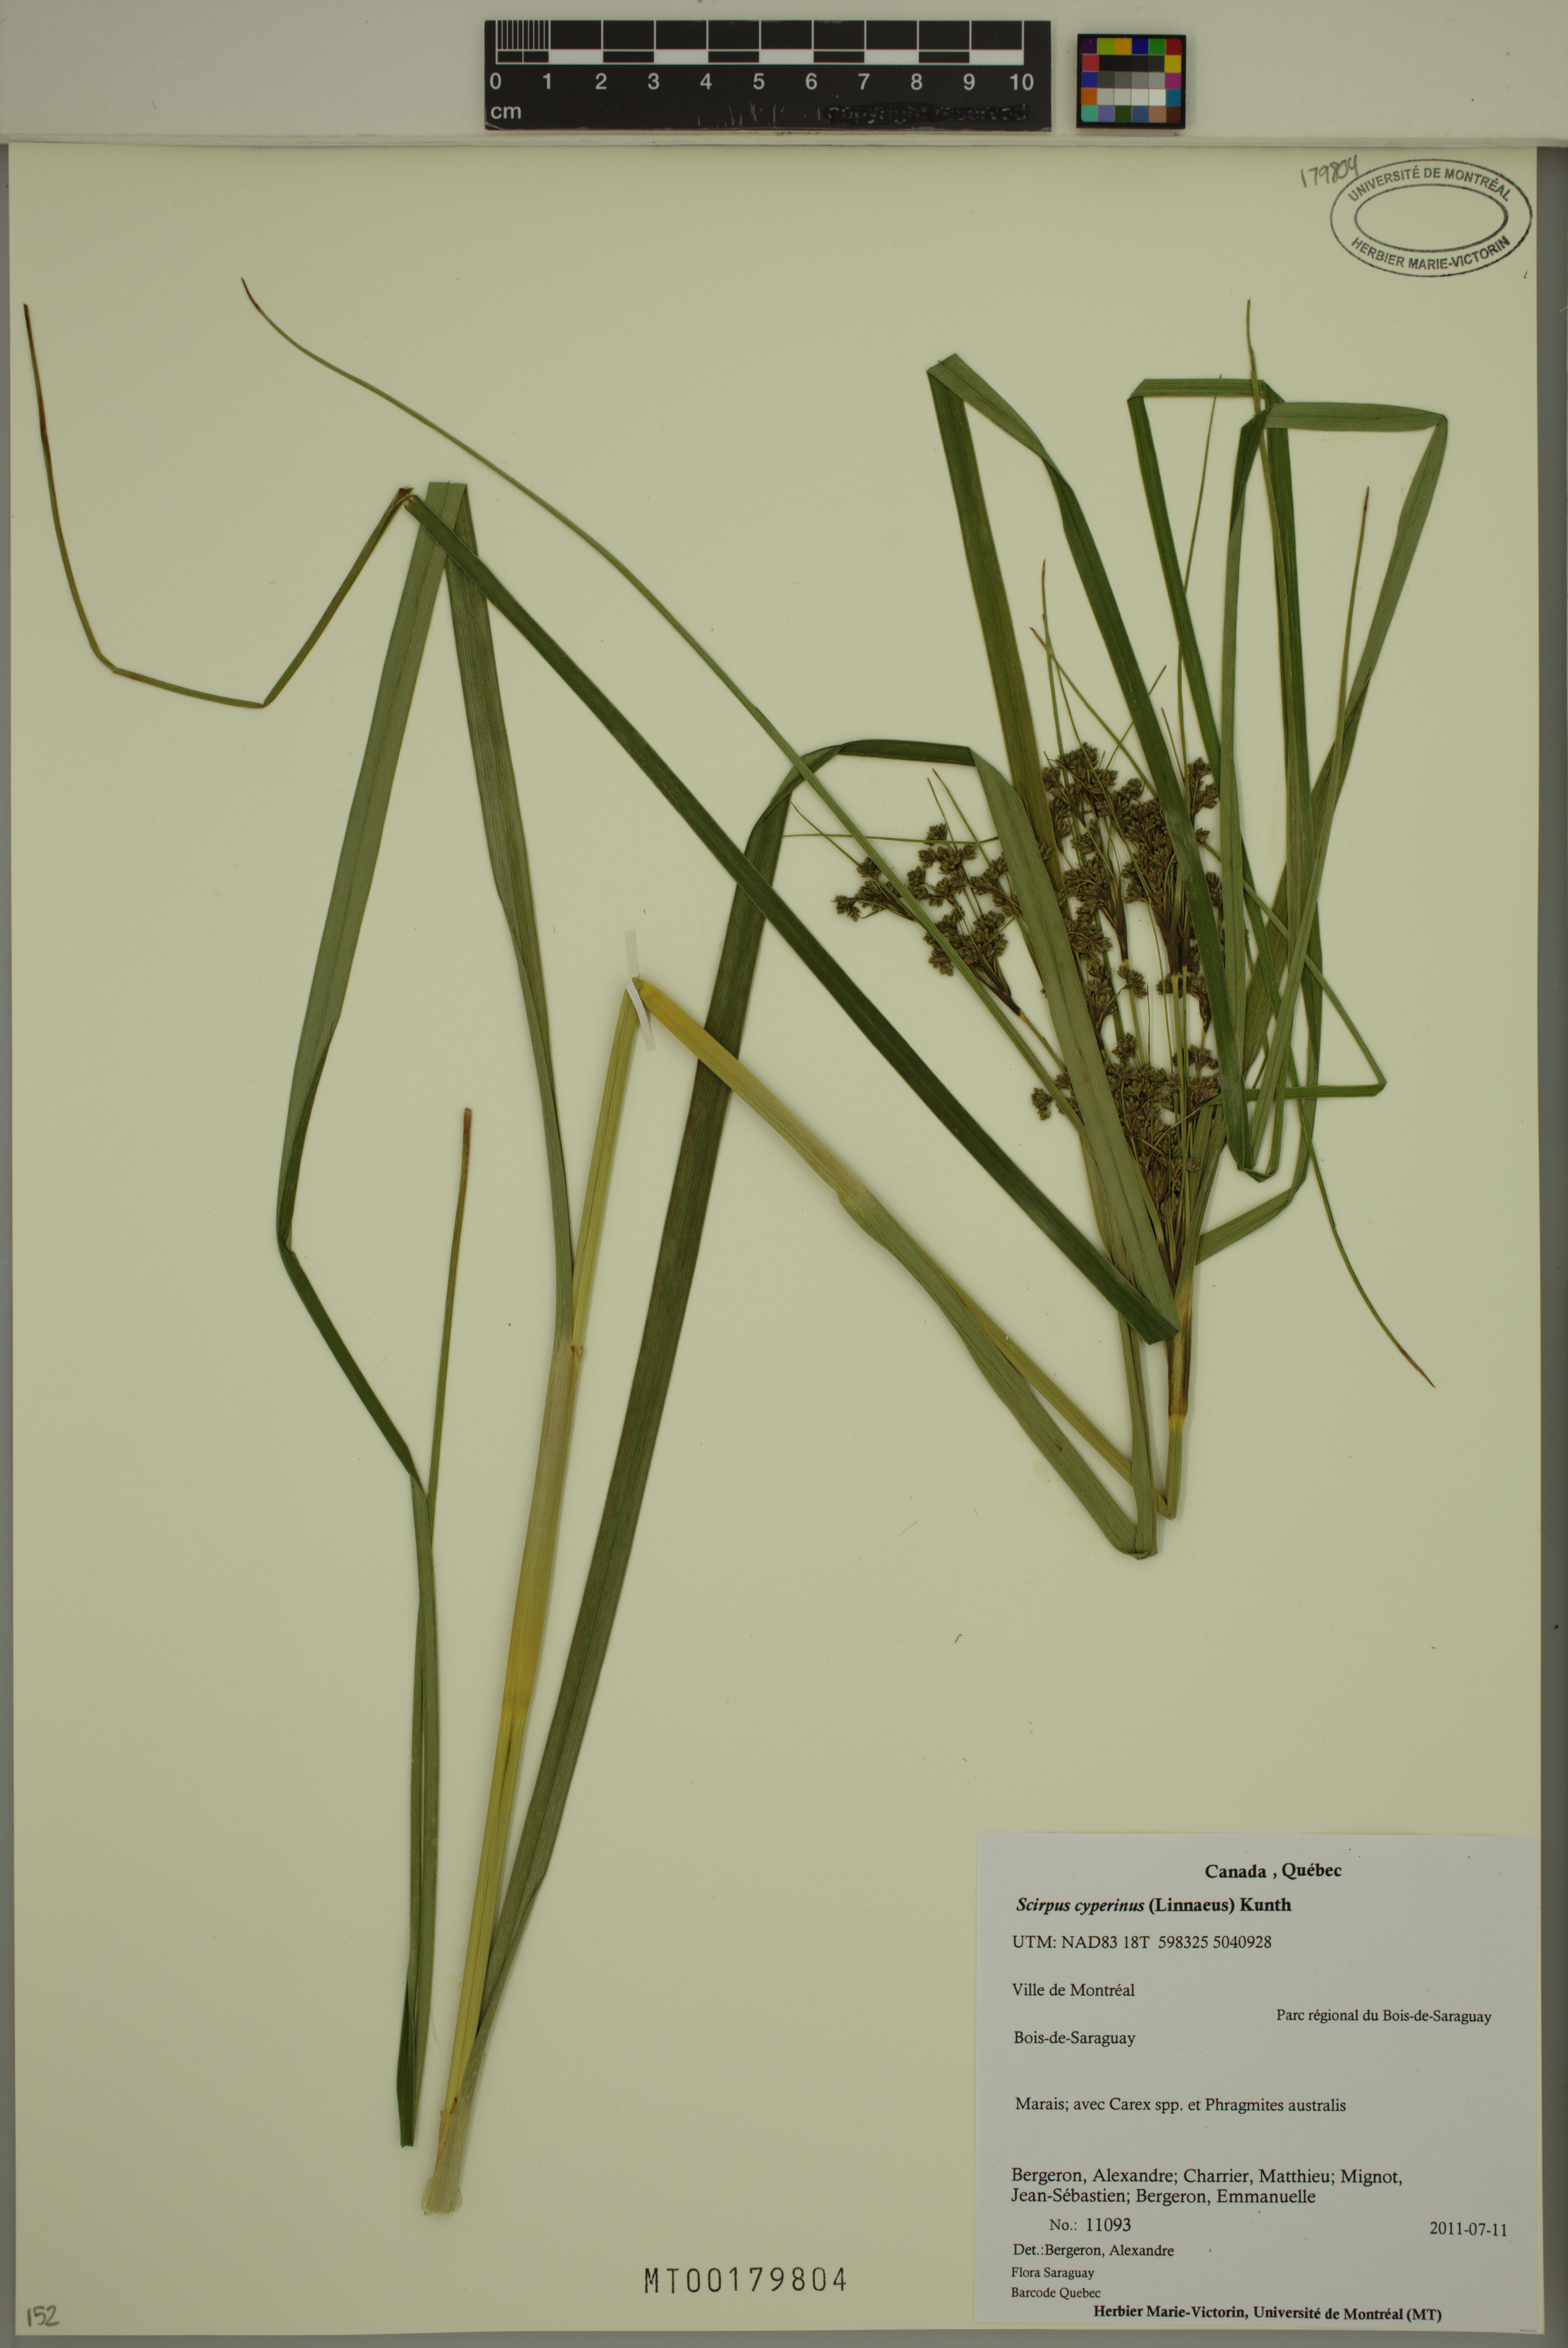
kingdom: Plantae
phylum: Tracheophyta
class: Liliopsida
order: Poales
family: Cyperaceae
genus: Scirpus
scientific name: Scirpus cyperinus
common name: Black-sheathed bulrush
